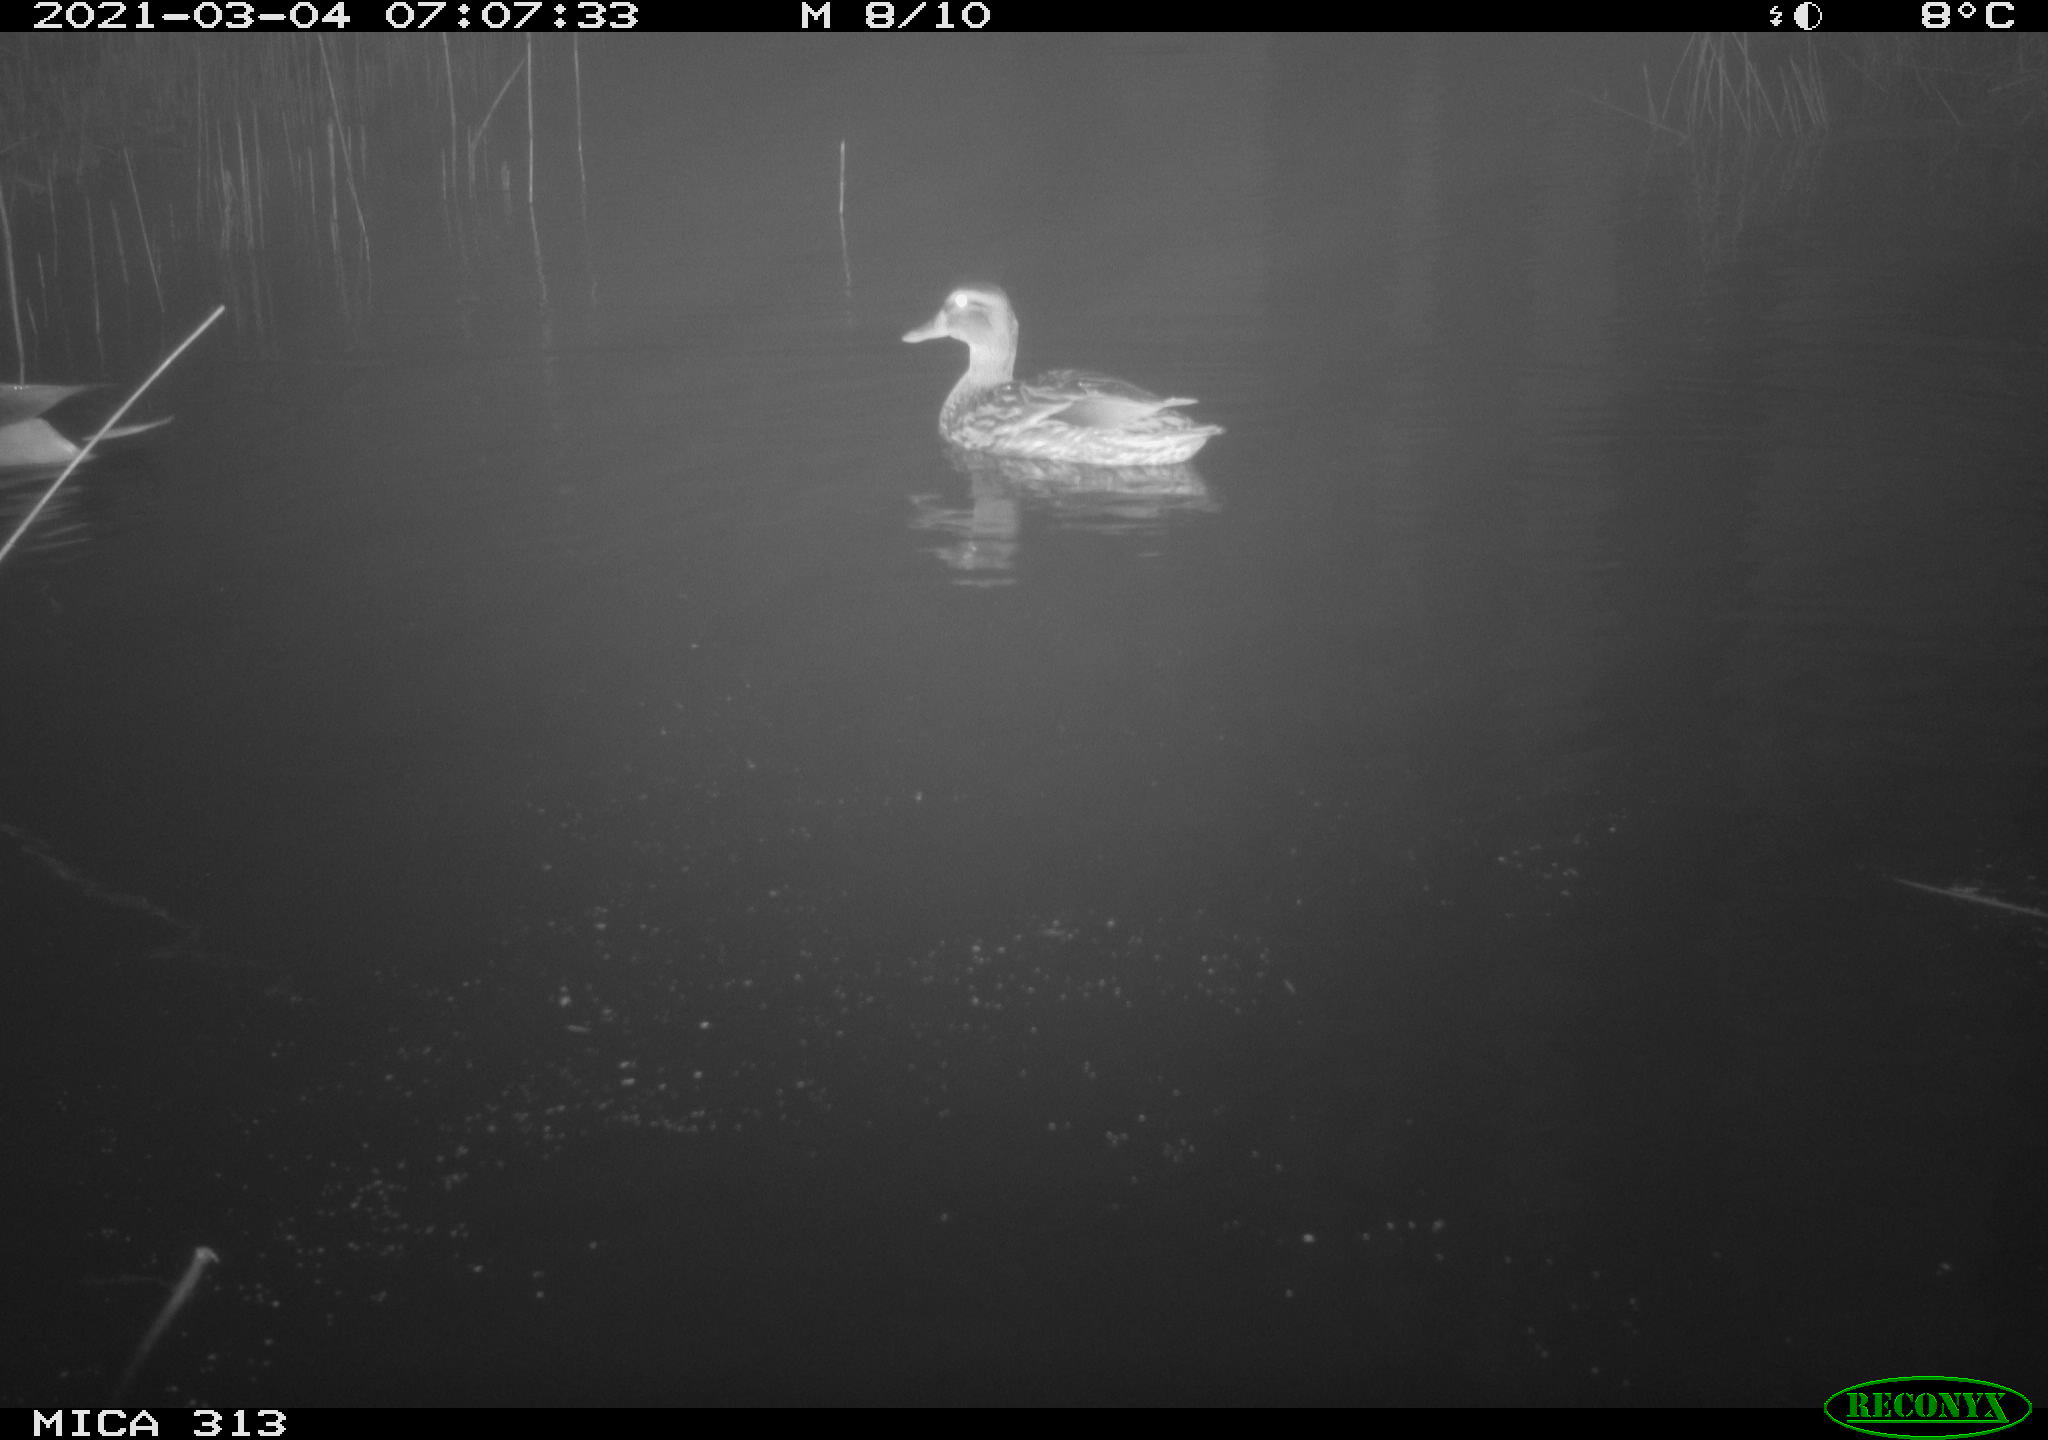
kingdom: Animalia
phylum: Chordata
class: Aves
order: Anseriformes
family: Anatidae
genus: Anas
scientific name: Anas platyrhynchos
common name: Mallard
